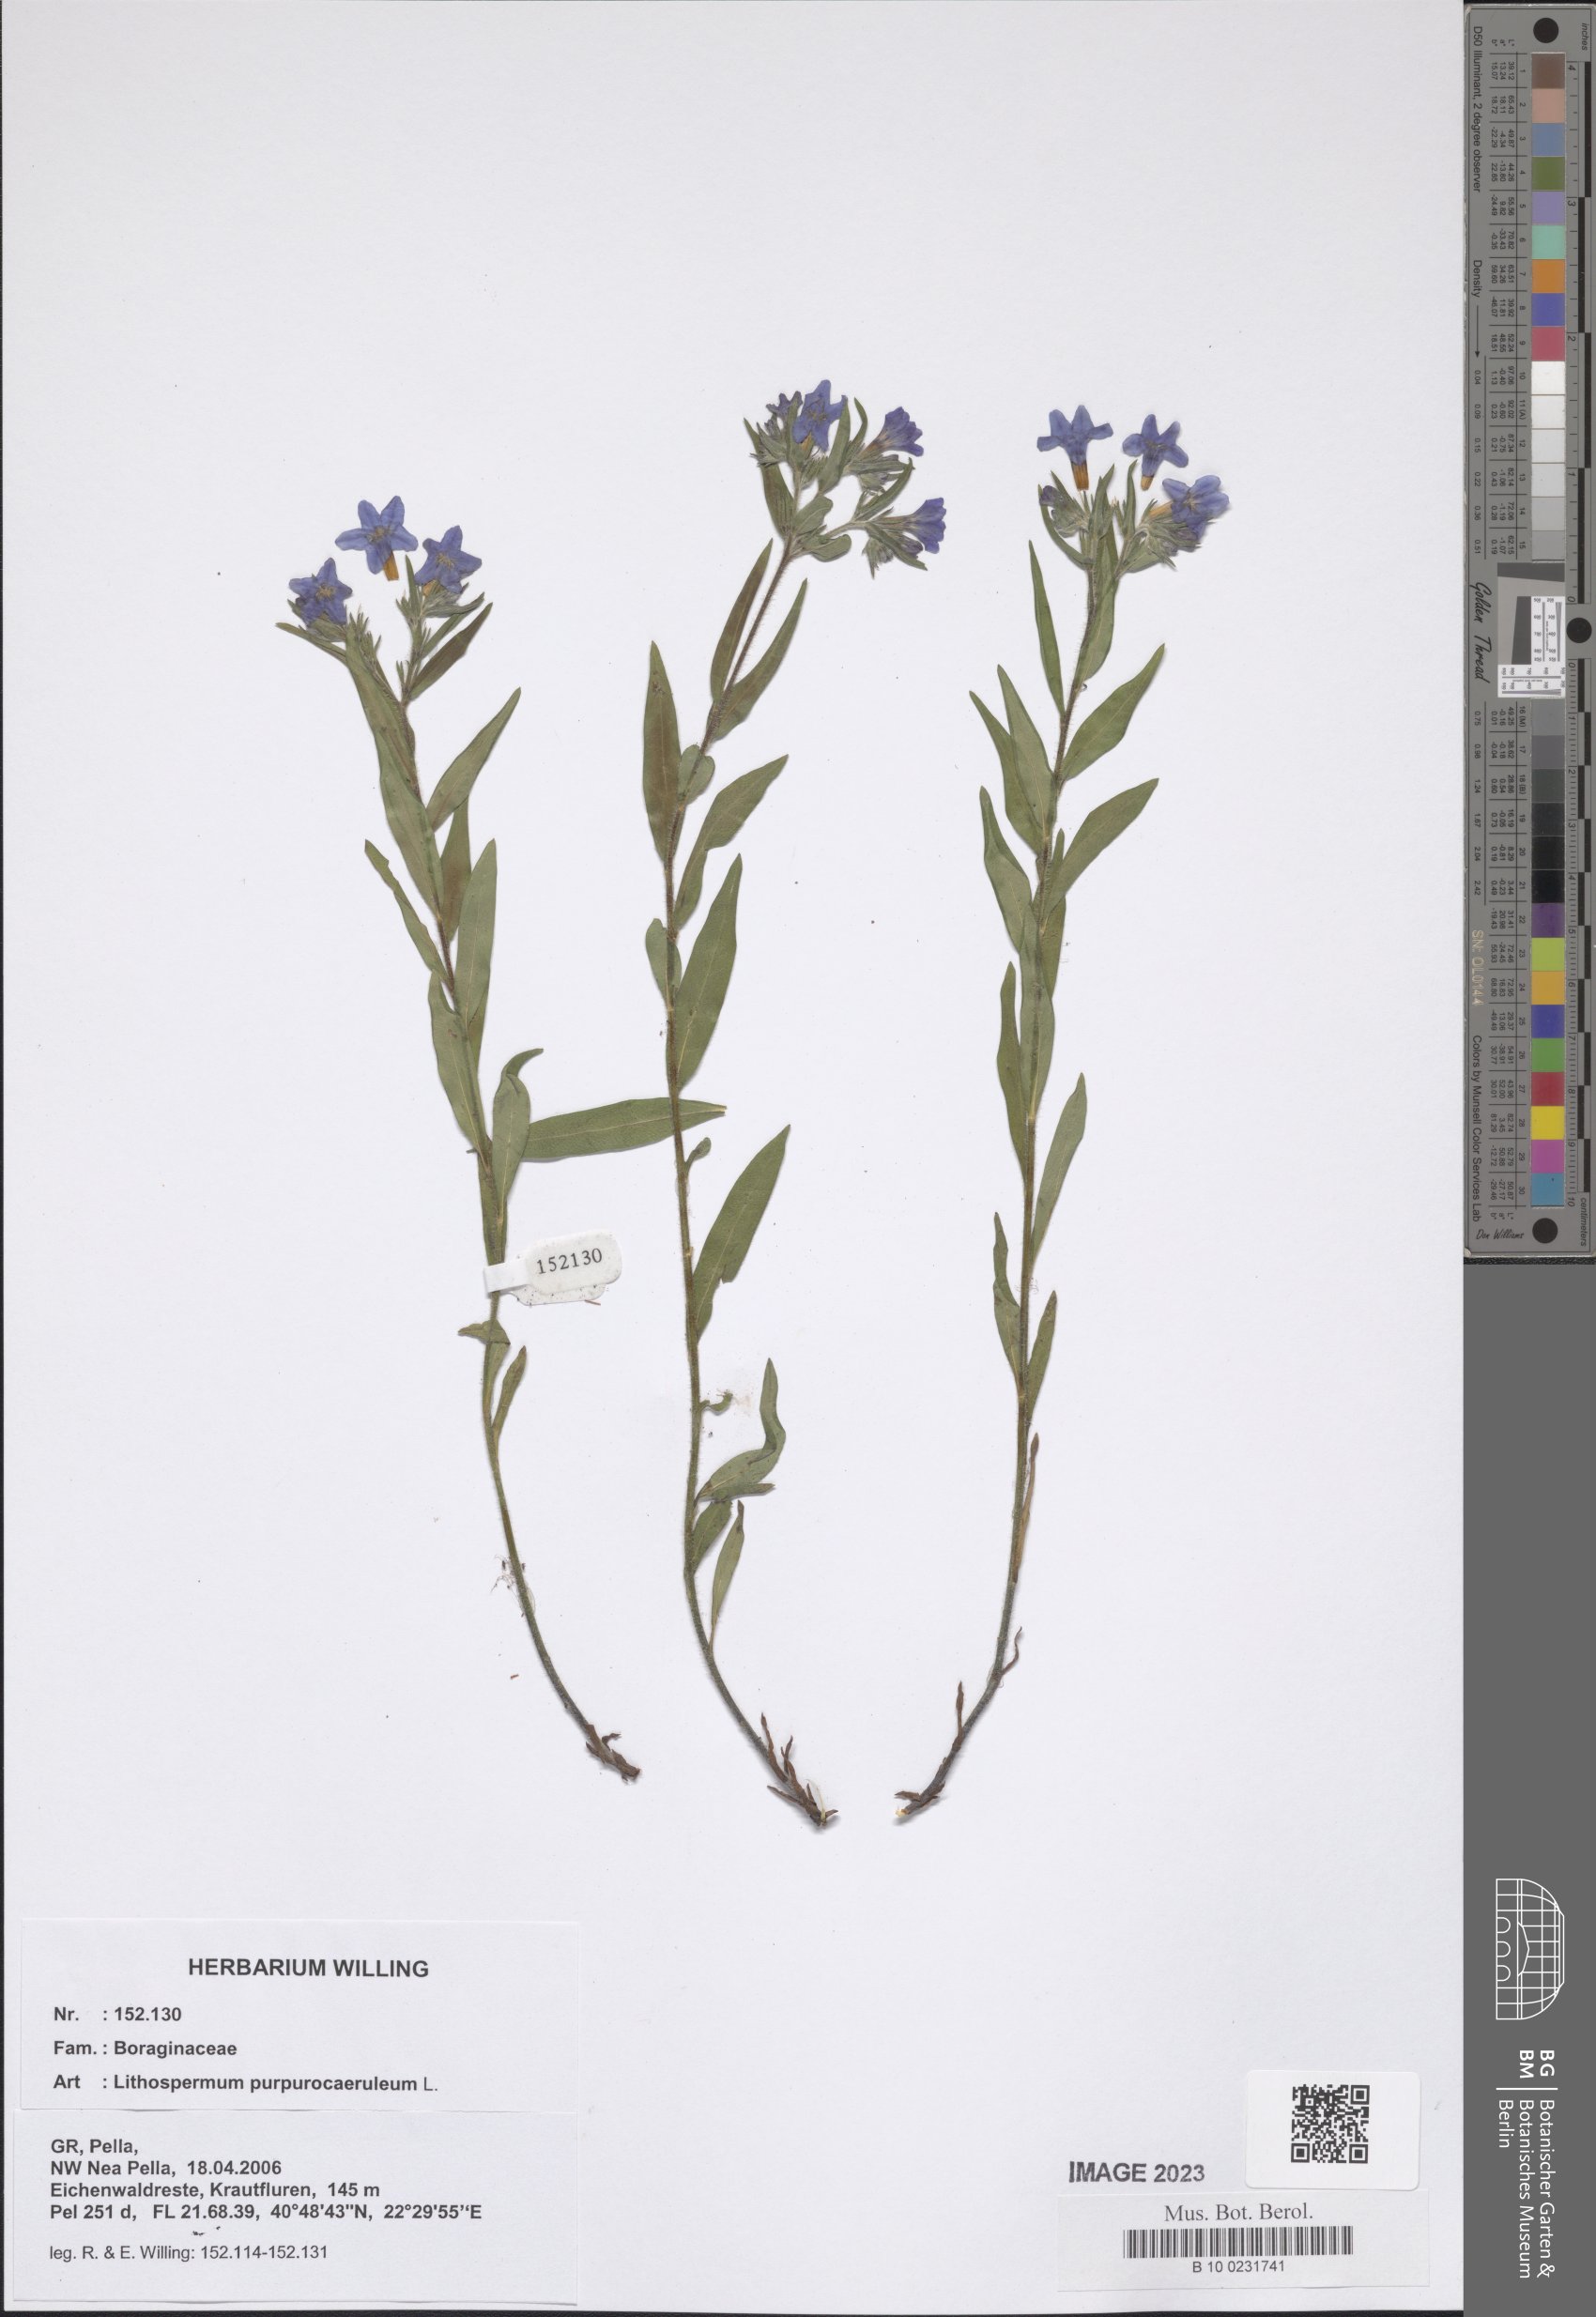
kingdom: Plantae
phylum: Tracheophyta
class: Magnoliopsida
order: Boraginales
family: Boraginaceae
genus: Aegonychon
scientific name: Aegonychon purpurocaeruleum
